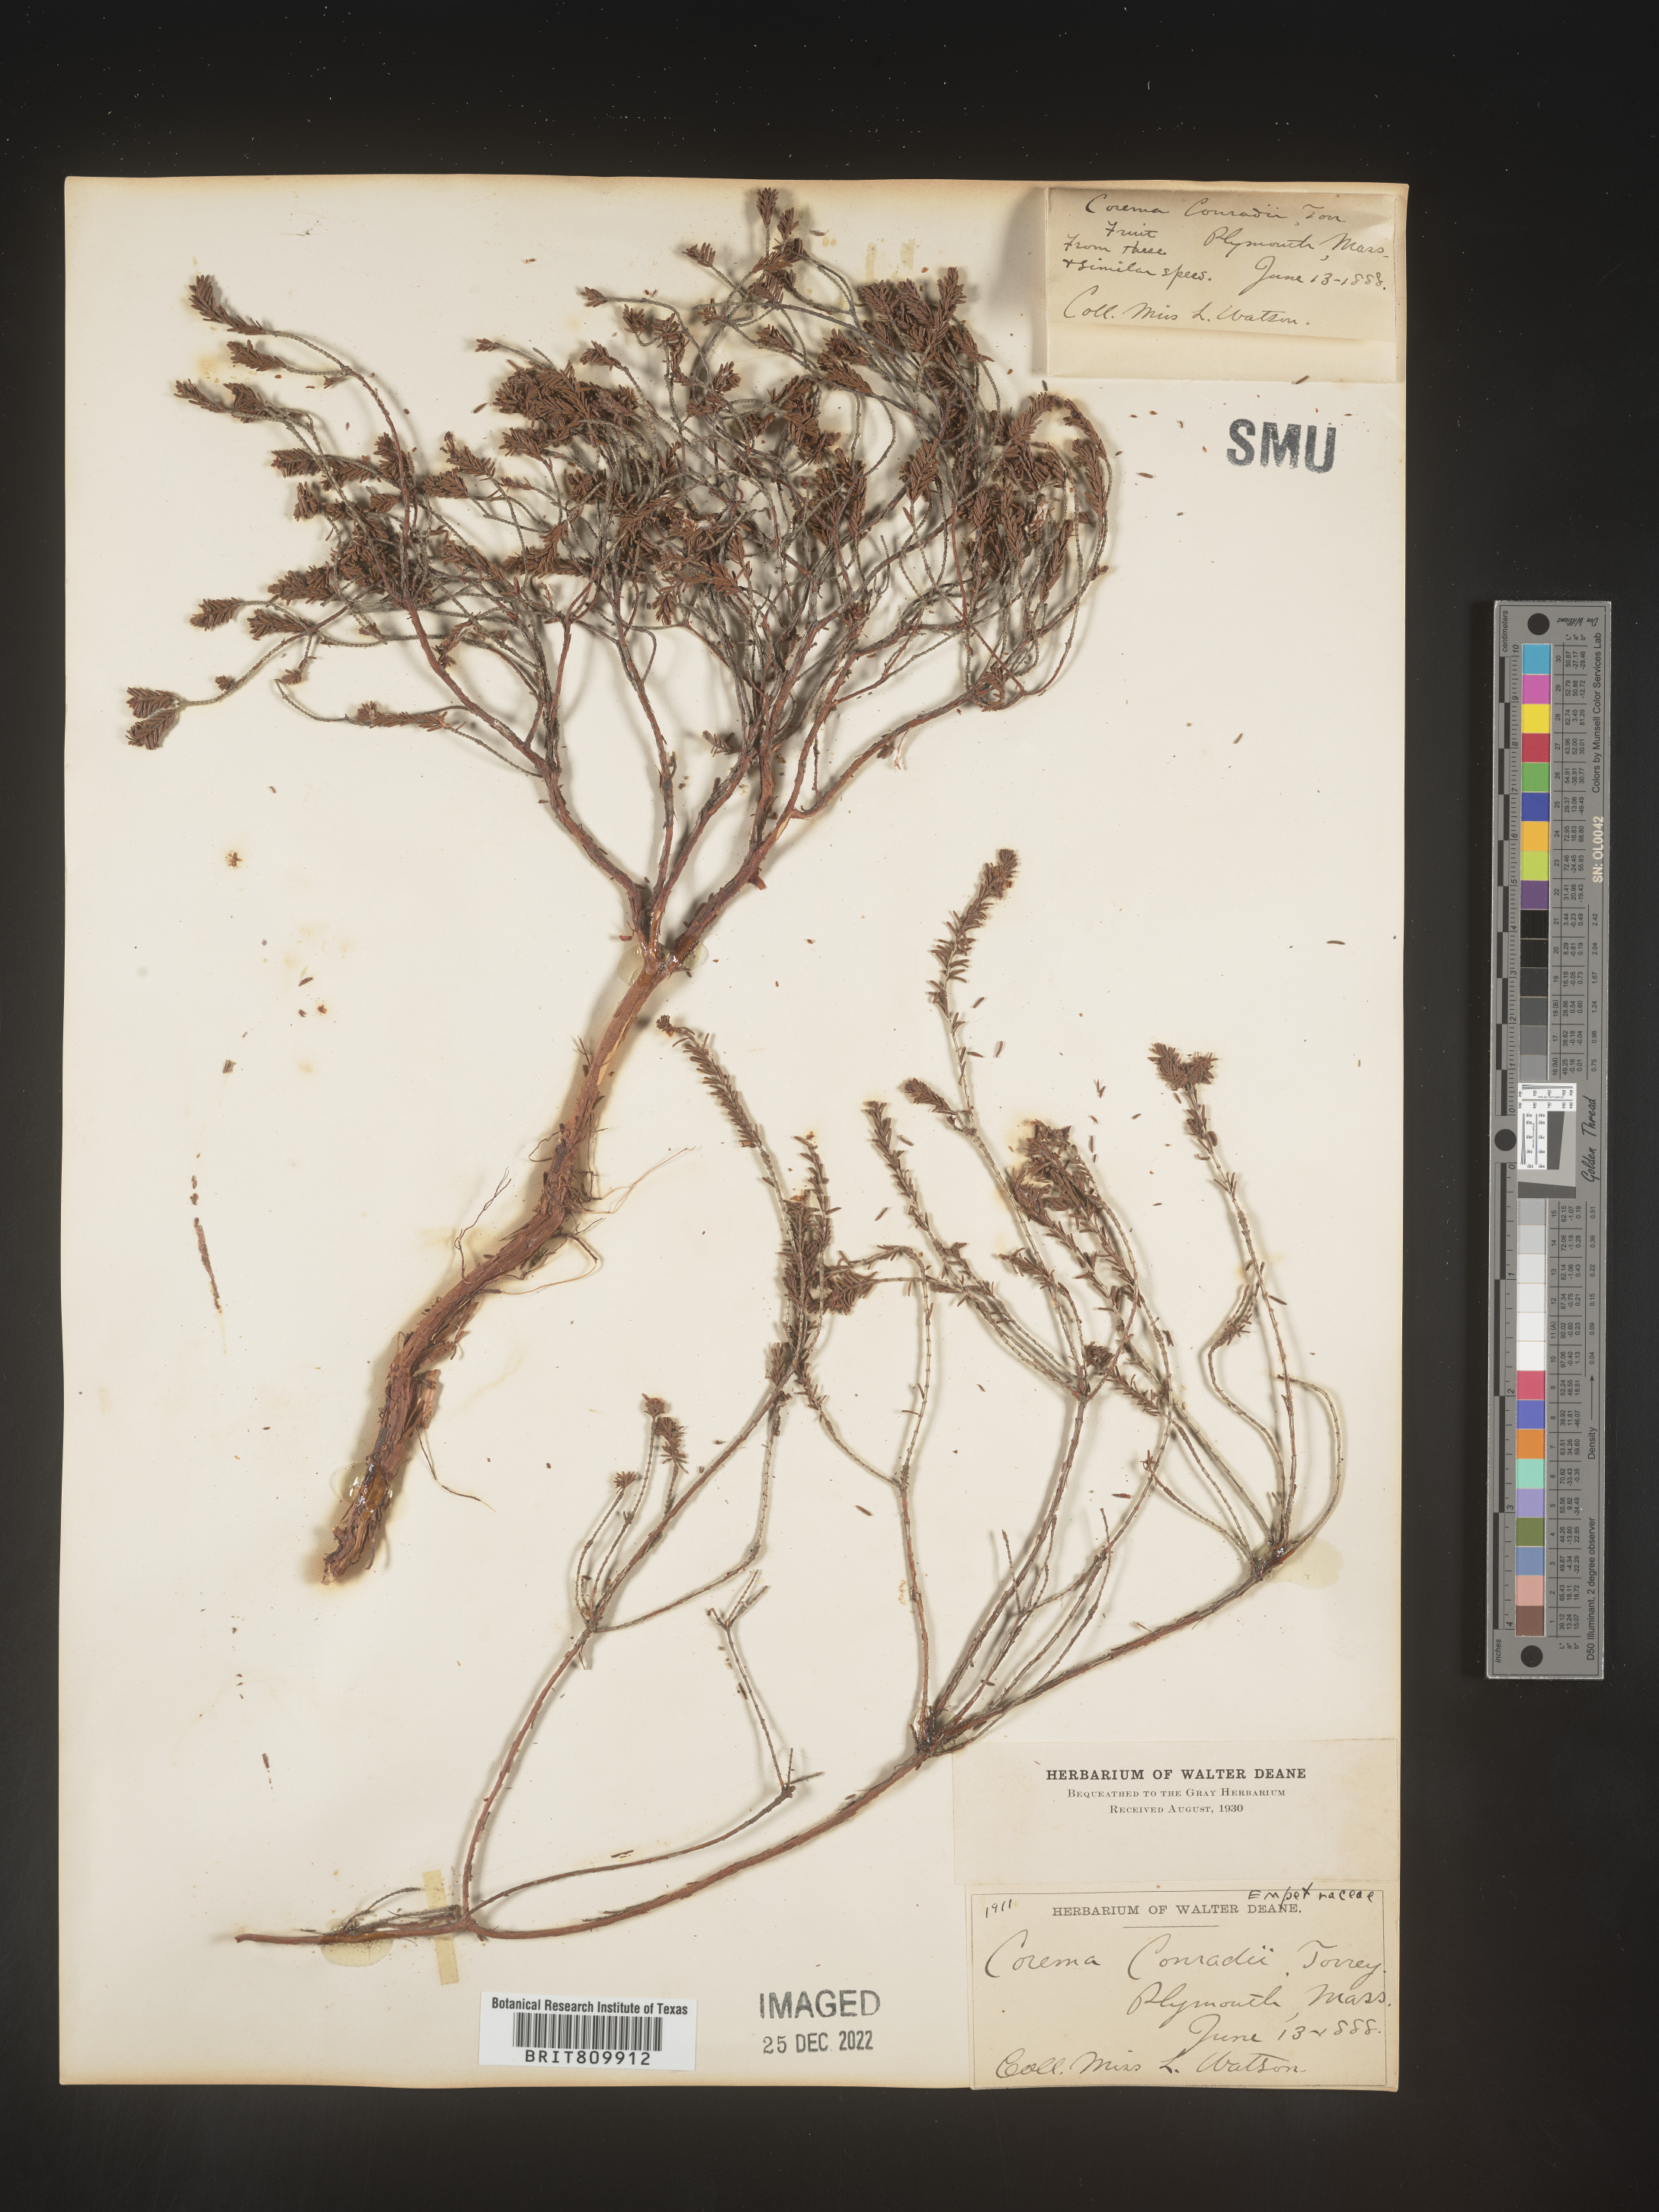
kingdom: Plantae
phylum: Tracheophyta
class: Magnoliopsida
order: Ericales
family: Ericaceae
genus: Corema
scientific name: Corema
